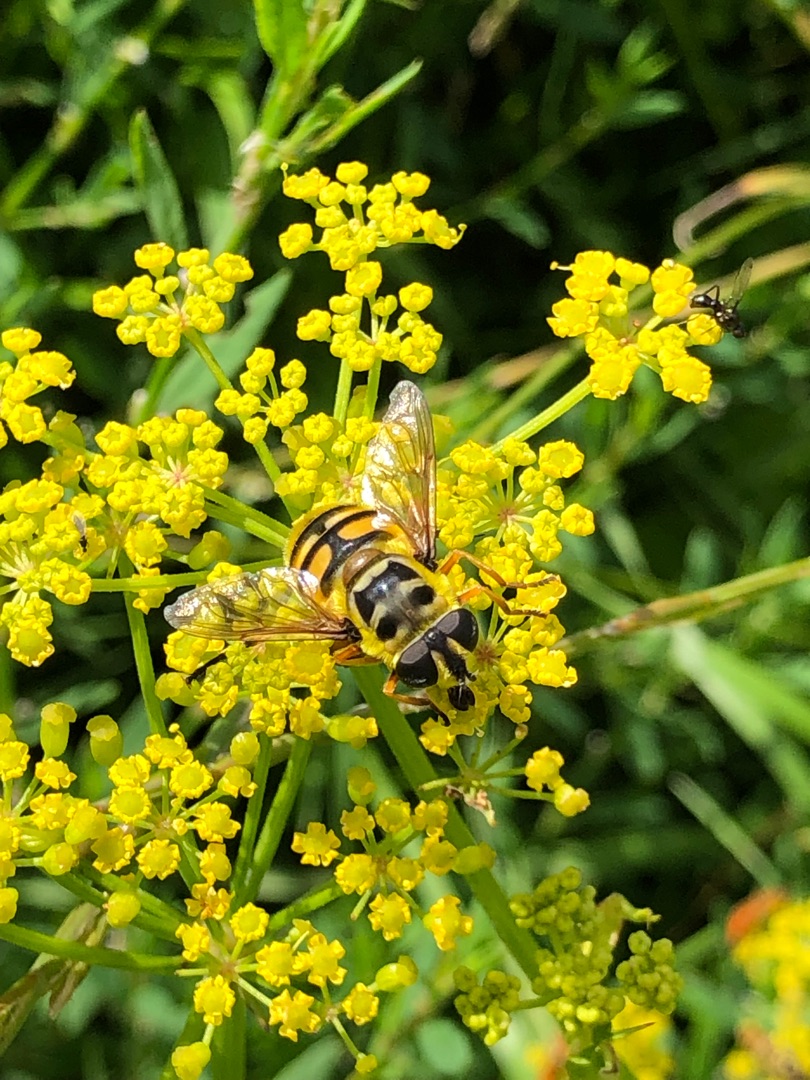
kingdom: Animalia
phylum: Arthropoda
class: Insecta
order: Diptera
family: Syrphidae
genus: Myathropa
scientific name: Myathropa florea
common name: Dødningehoved-svirreflue
